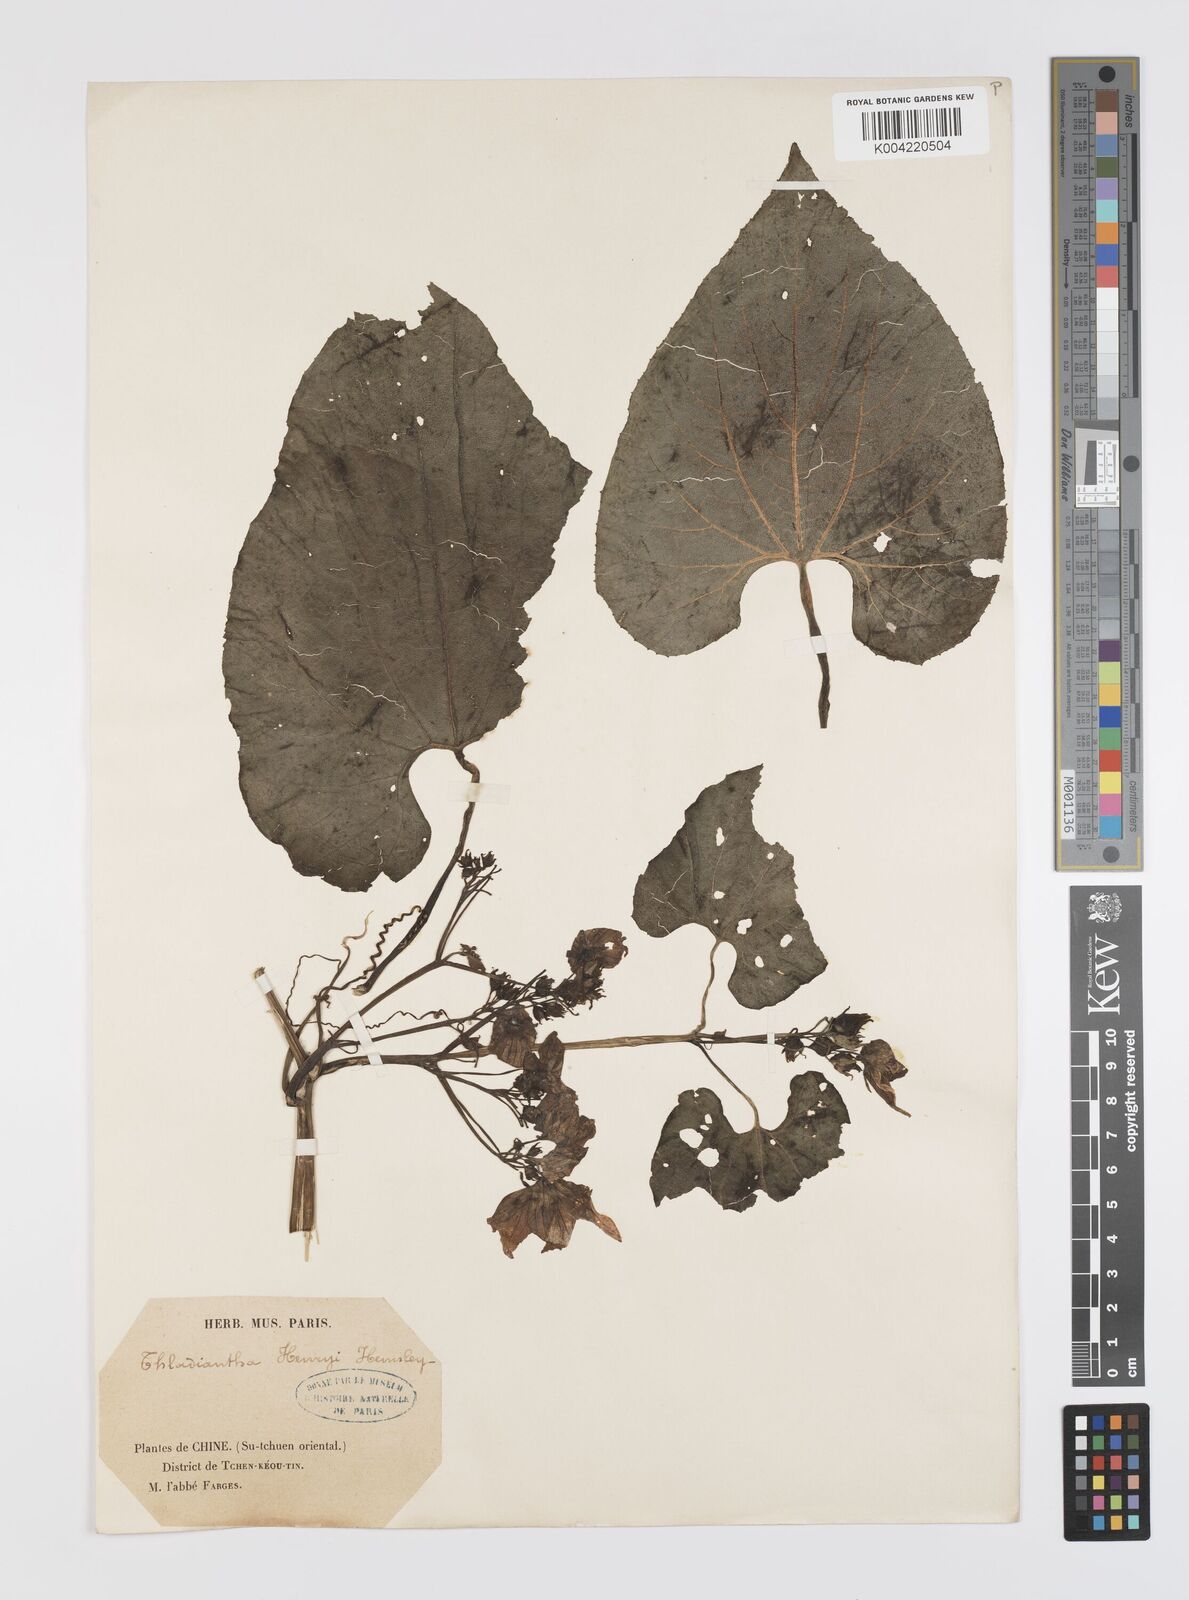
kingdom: Plantae
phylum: Tracheophyta
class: Magnoliopsida
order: Cucurbitales
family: Cucurbitaceae
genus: Thladiantha
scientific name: Thladiantha henryi
